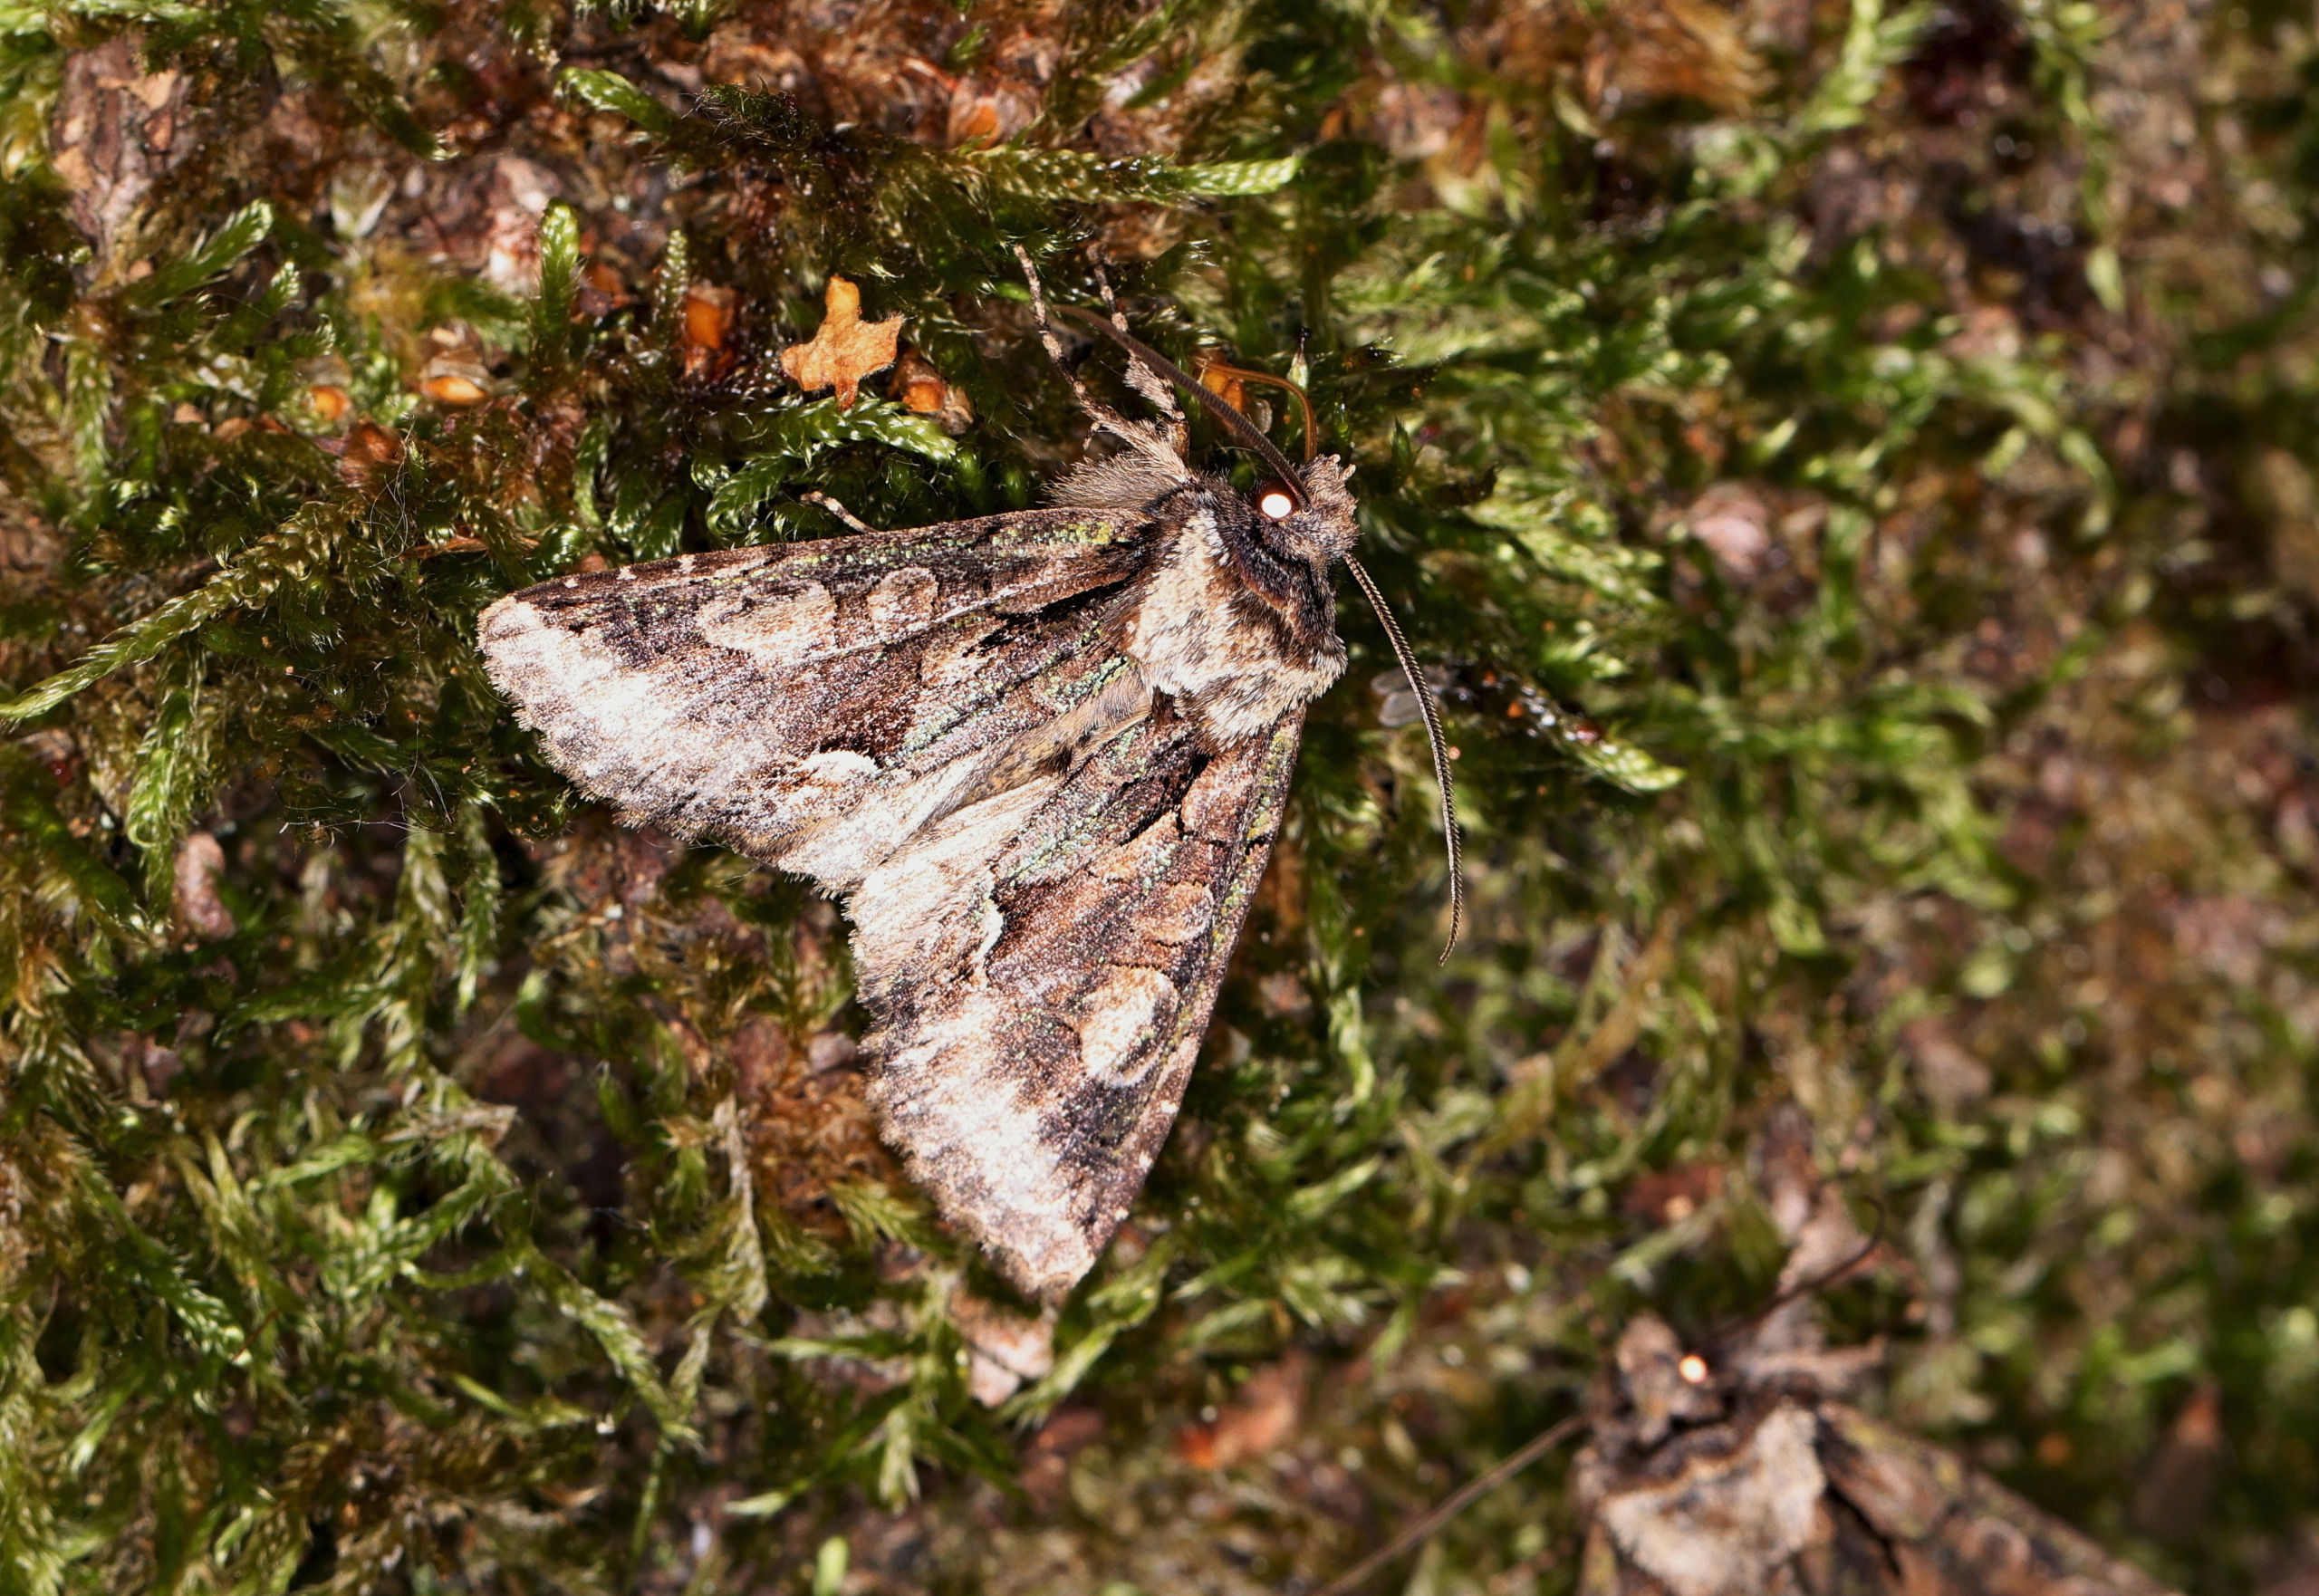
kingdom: Animalia
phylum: Arthropoda
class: Insecta
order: Lepidoptera
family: Noctuidae
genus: Allophyes
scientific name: Allophyes oxyacanthae
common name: Tjørneugle
